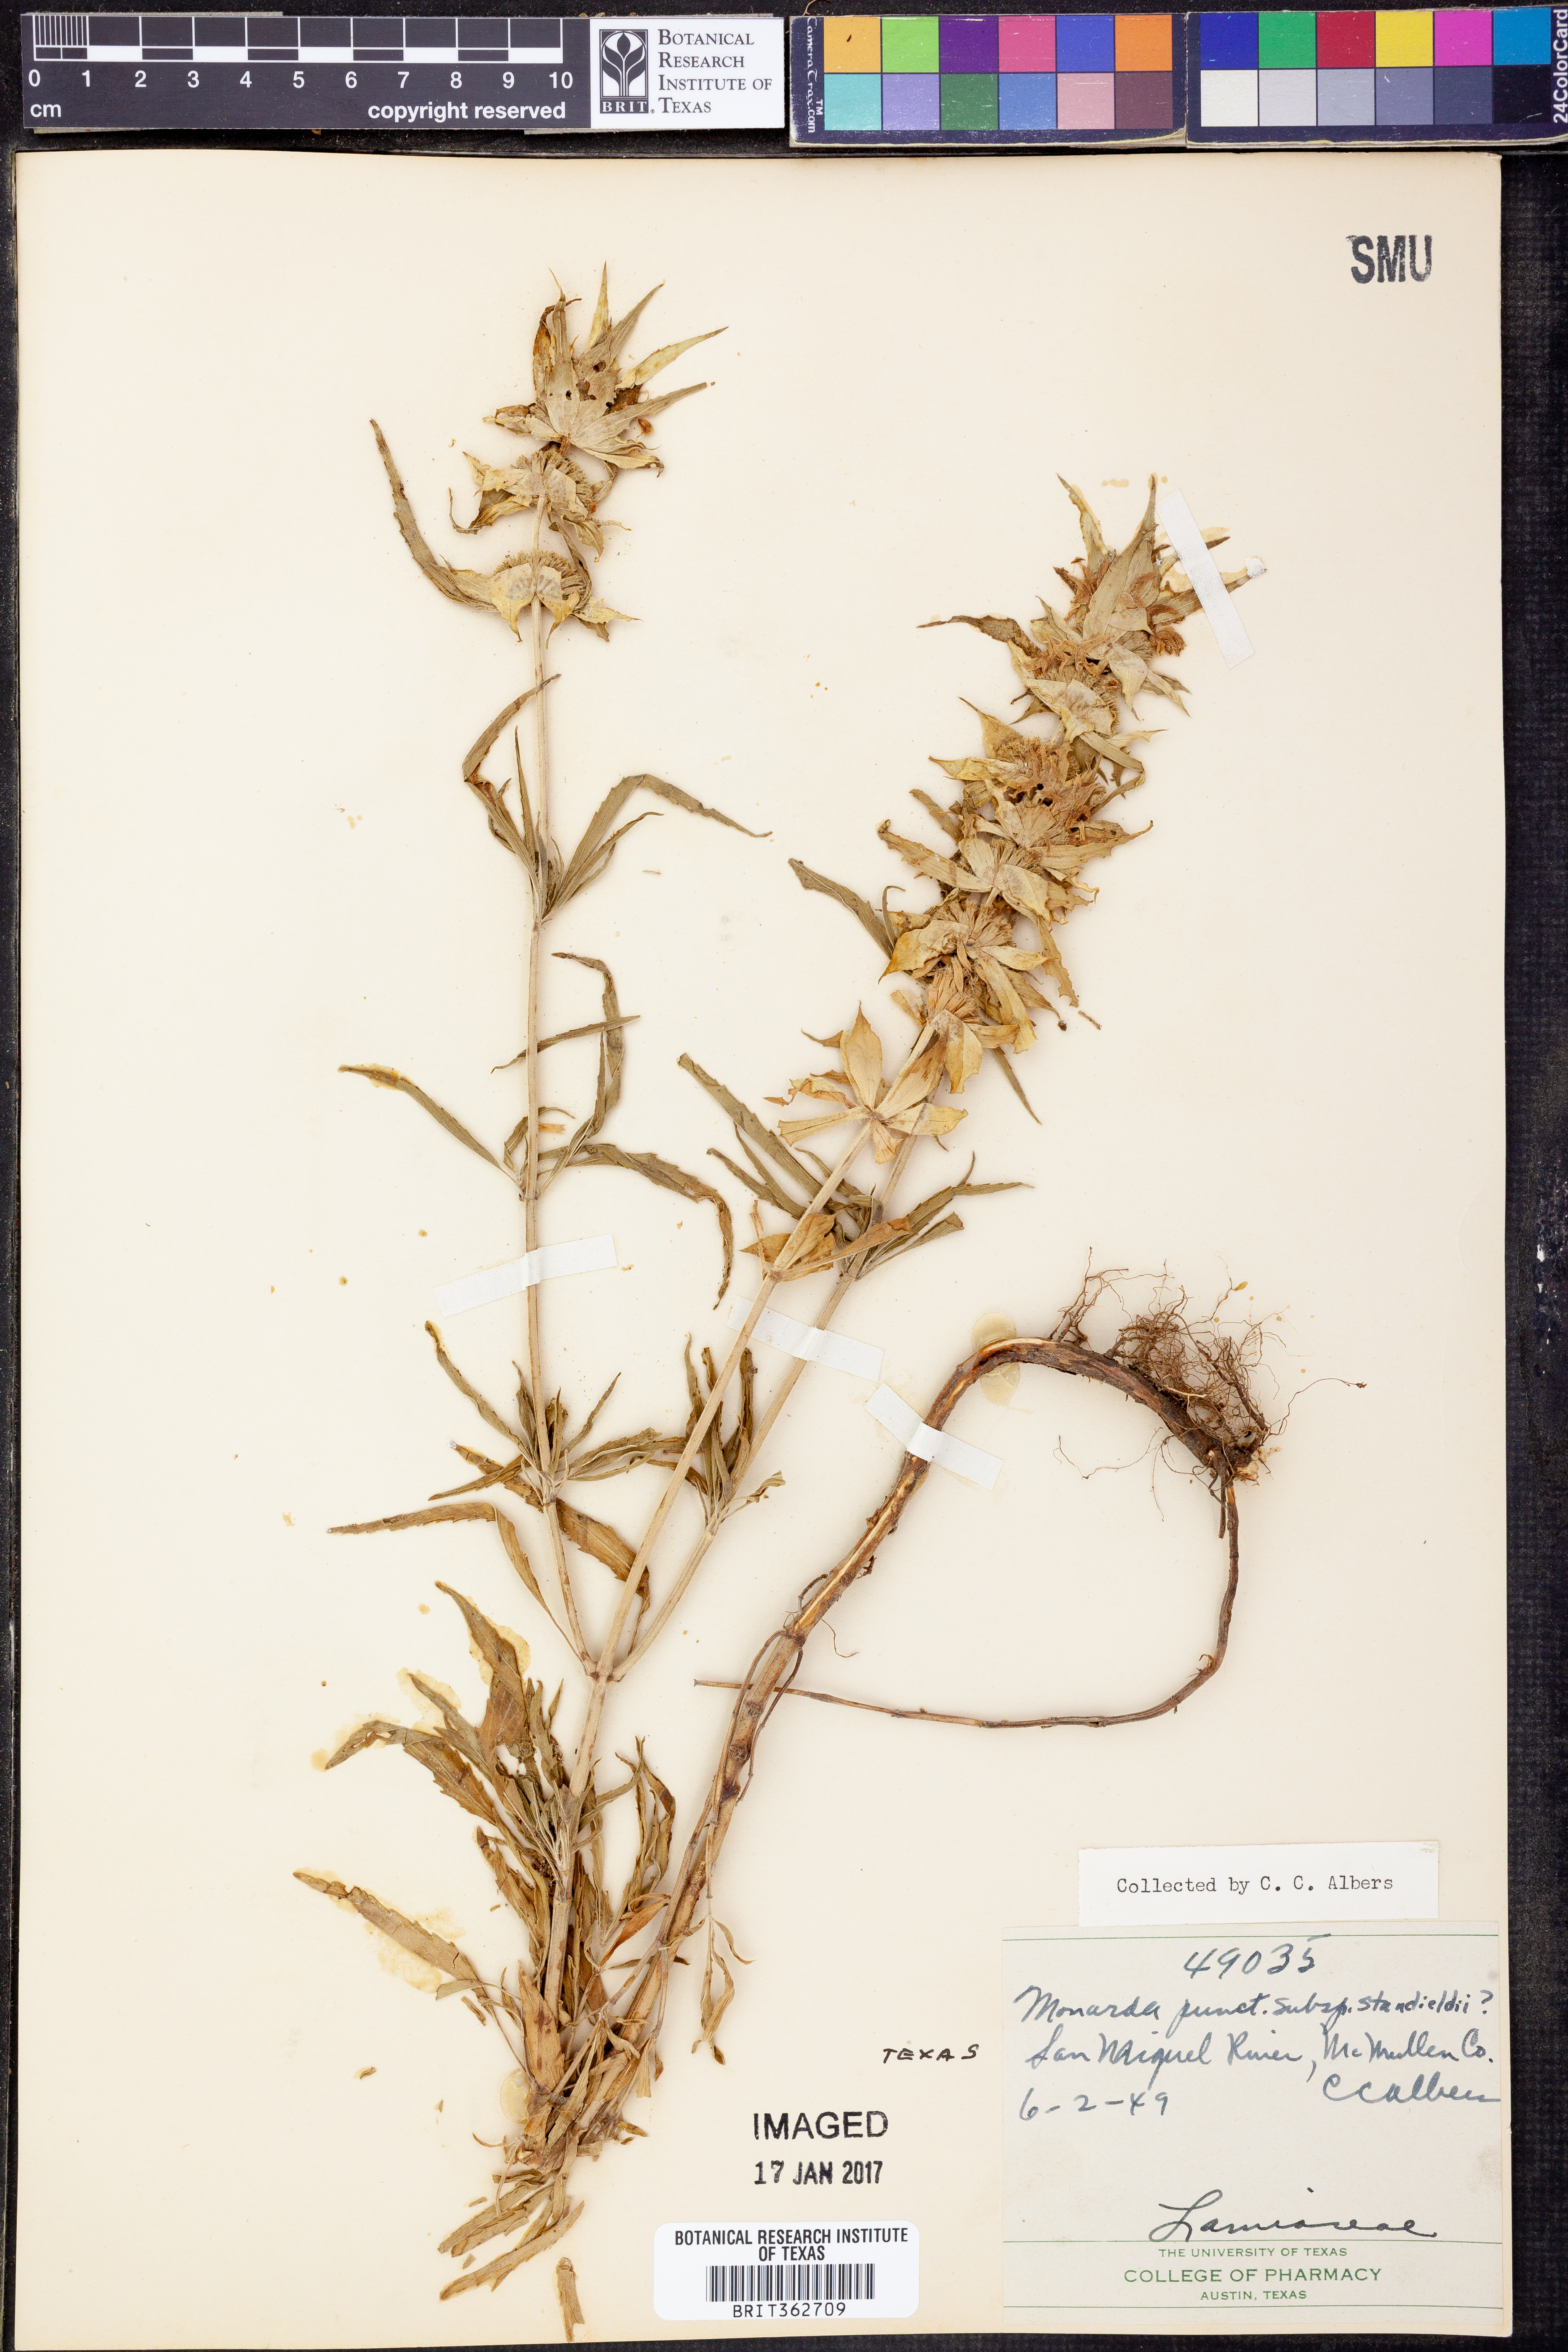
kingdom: Plantae
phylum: Tracheophyta
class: Magnoliopsida
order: Lamiales
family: Lamiaceae
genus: Monarda
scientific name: Monarda stanfieldii
